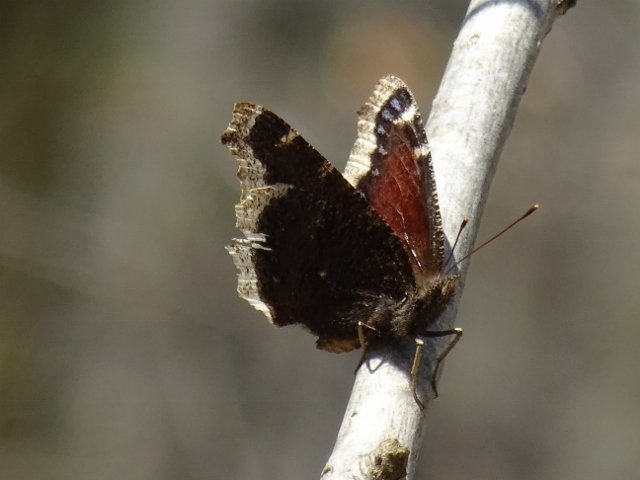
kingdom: Animalia
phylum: Arthropoda
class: Insecta
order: Lepidoptera
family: Nymphalidae
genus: Nymphalis
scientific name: Nymphalis antiopa
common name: Mourning Cloak
